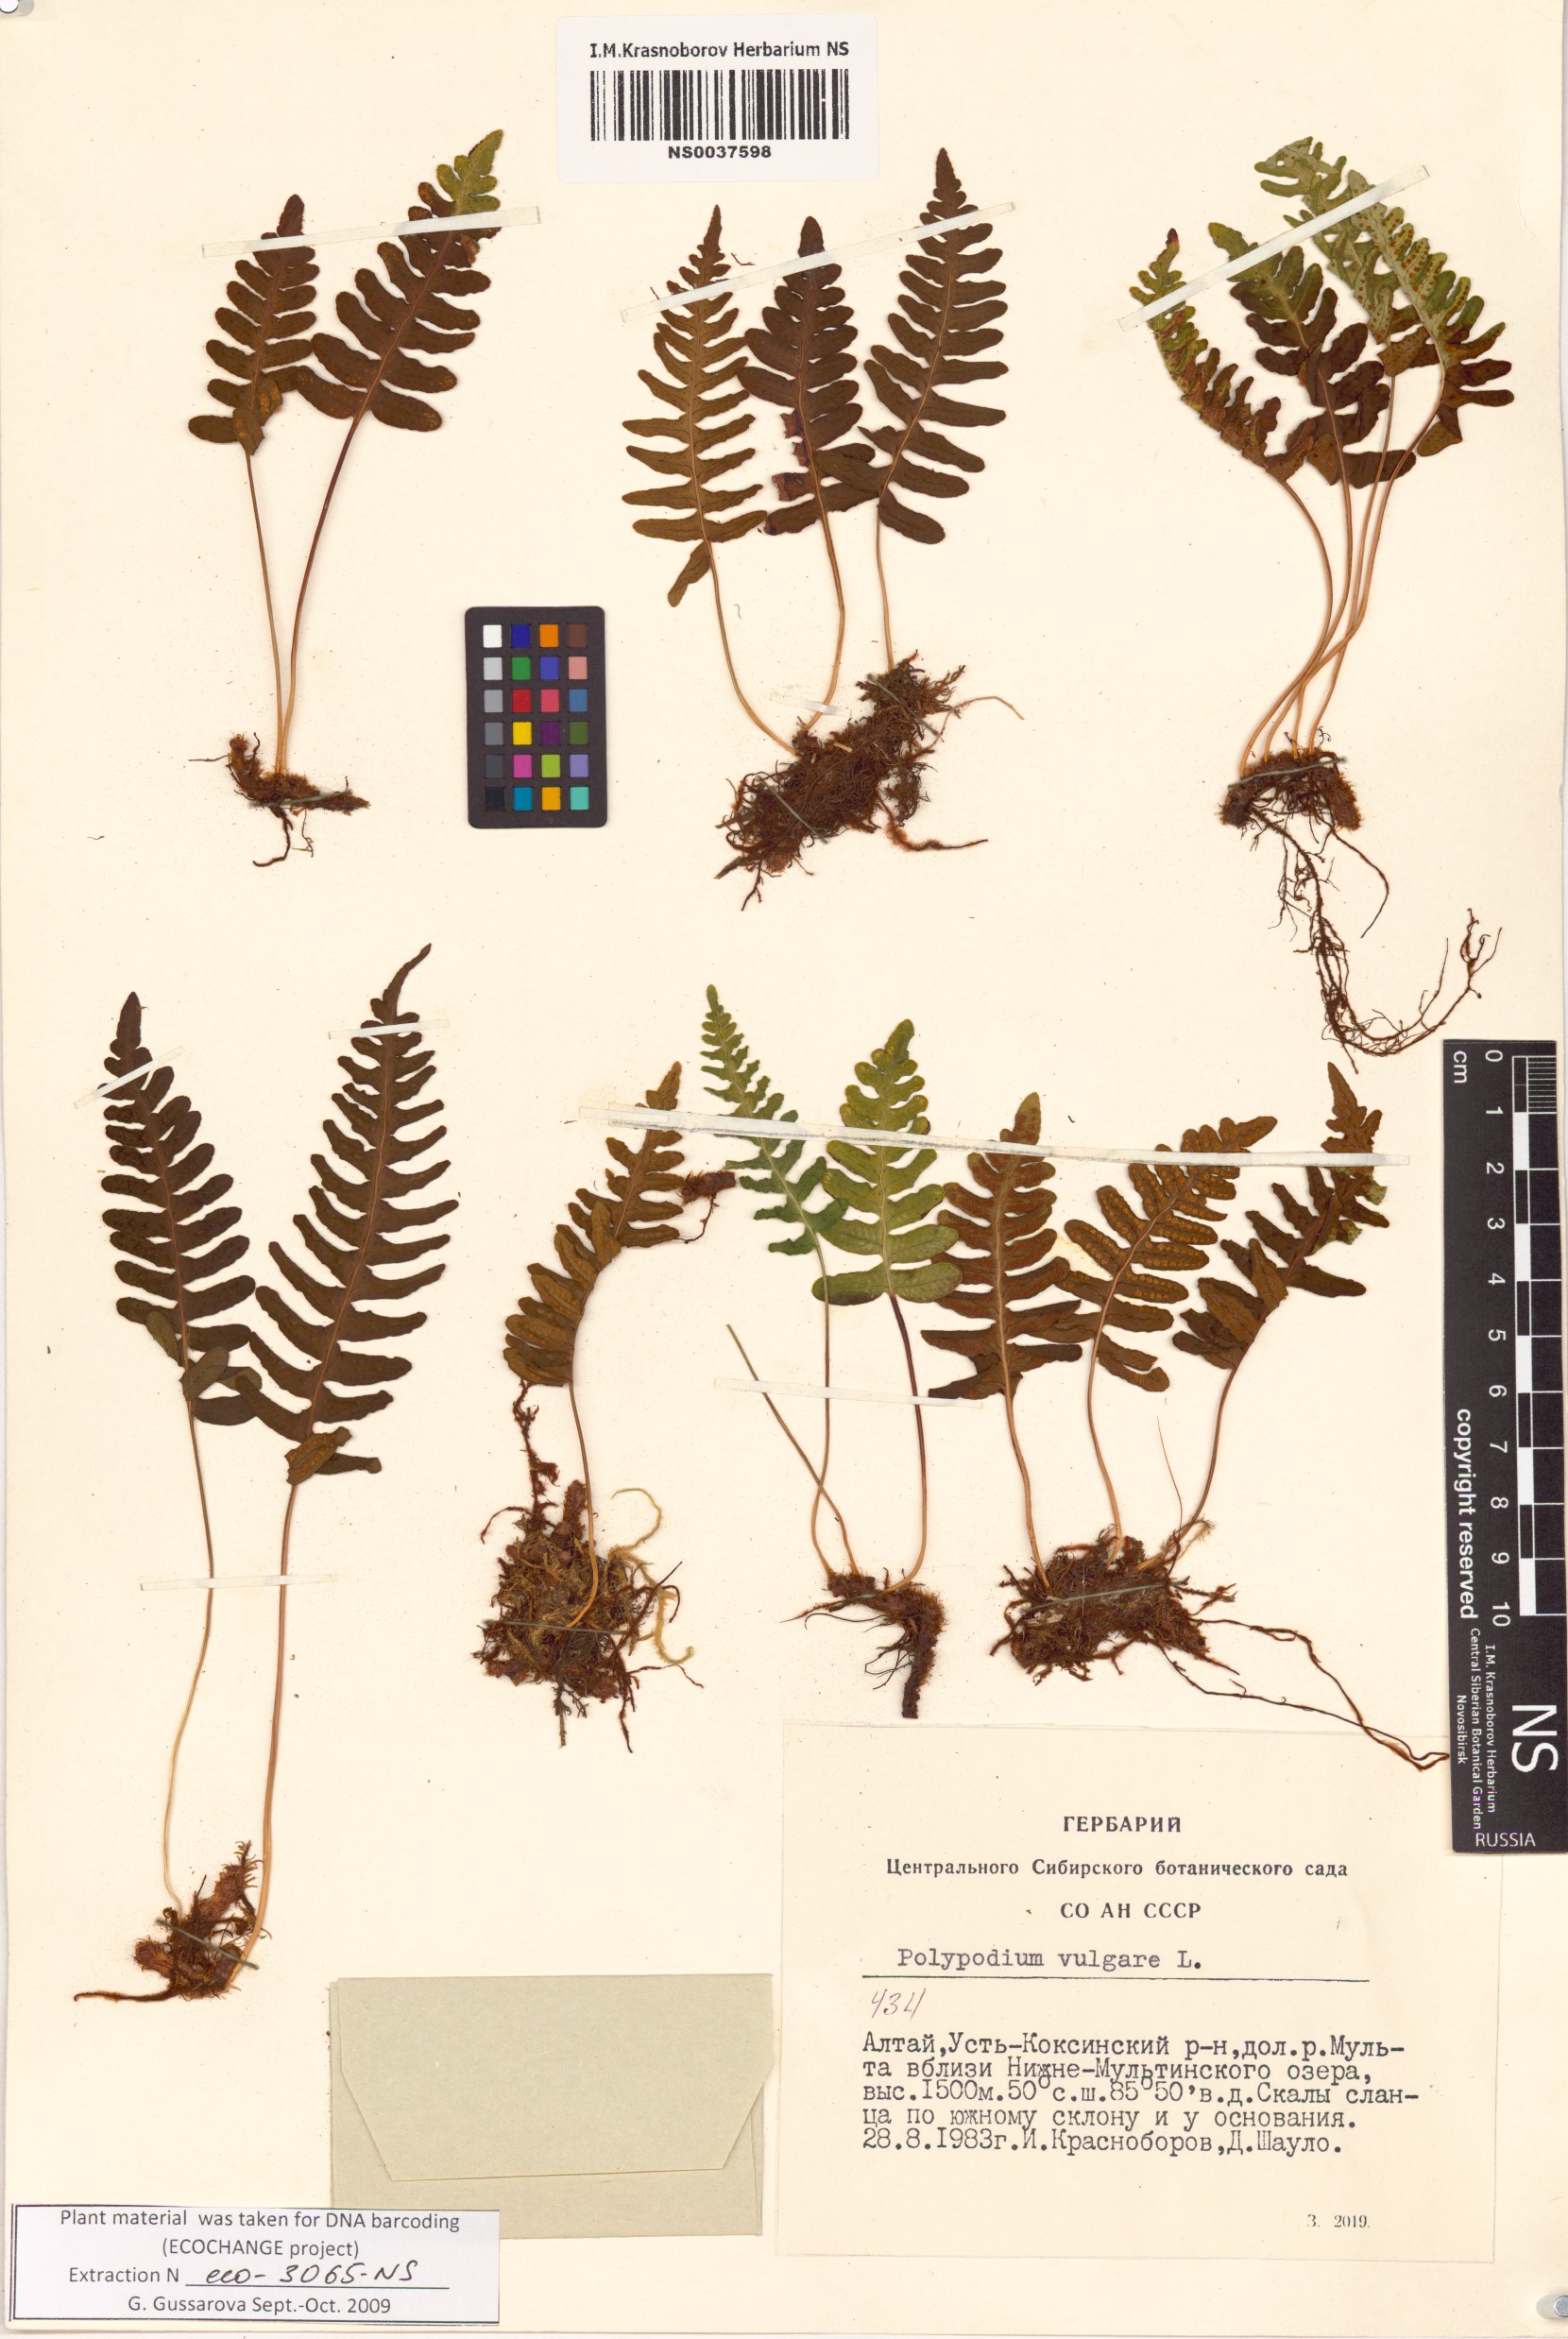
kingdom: Plantae
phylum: Tracheophyta
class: Polypodiopsida
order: Polypodiales
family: Polypodiaceae
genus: Polypodium
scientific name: Polypodium vulgare
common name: Common polypody
